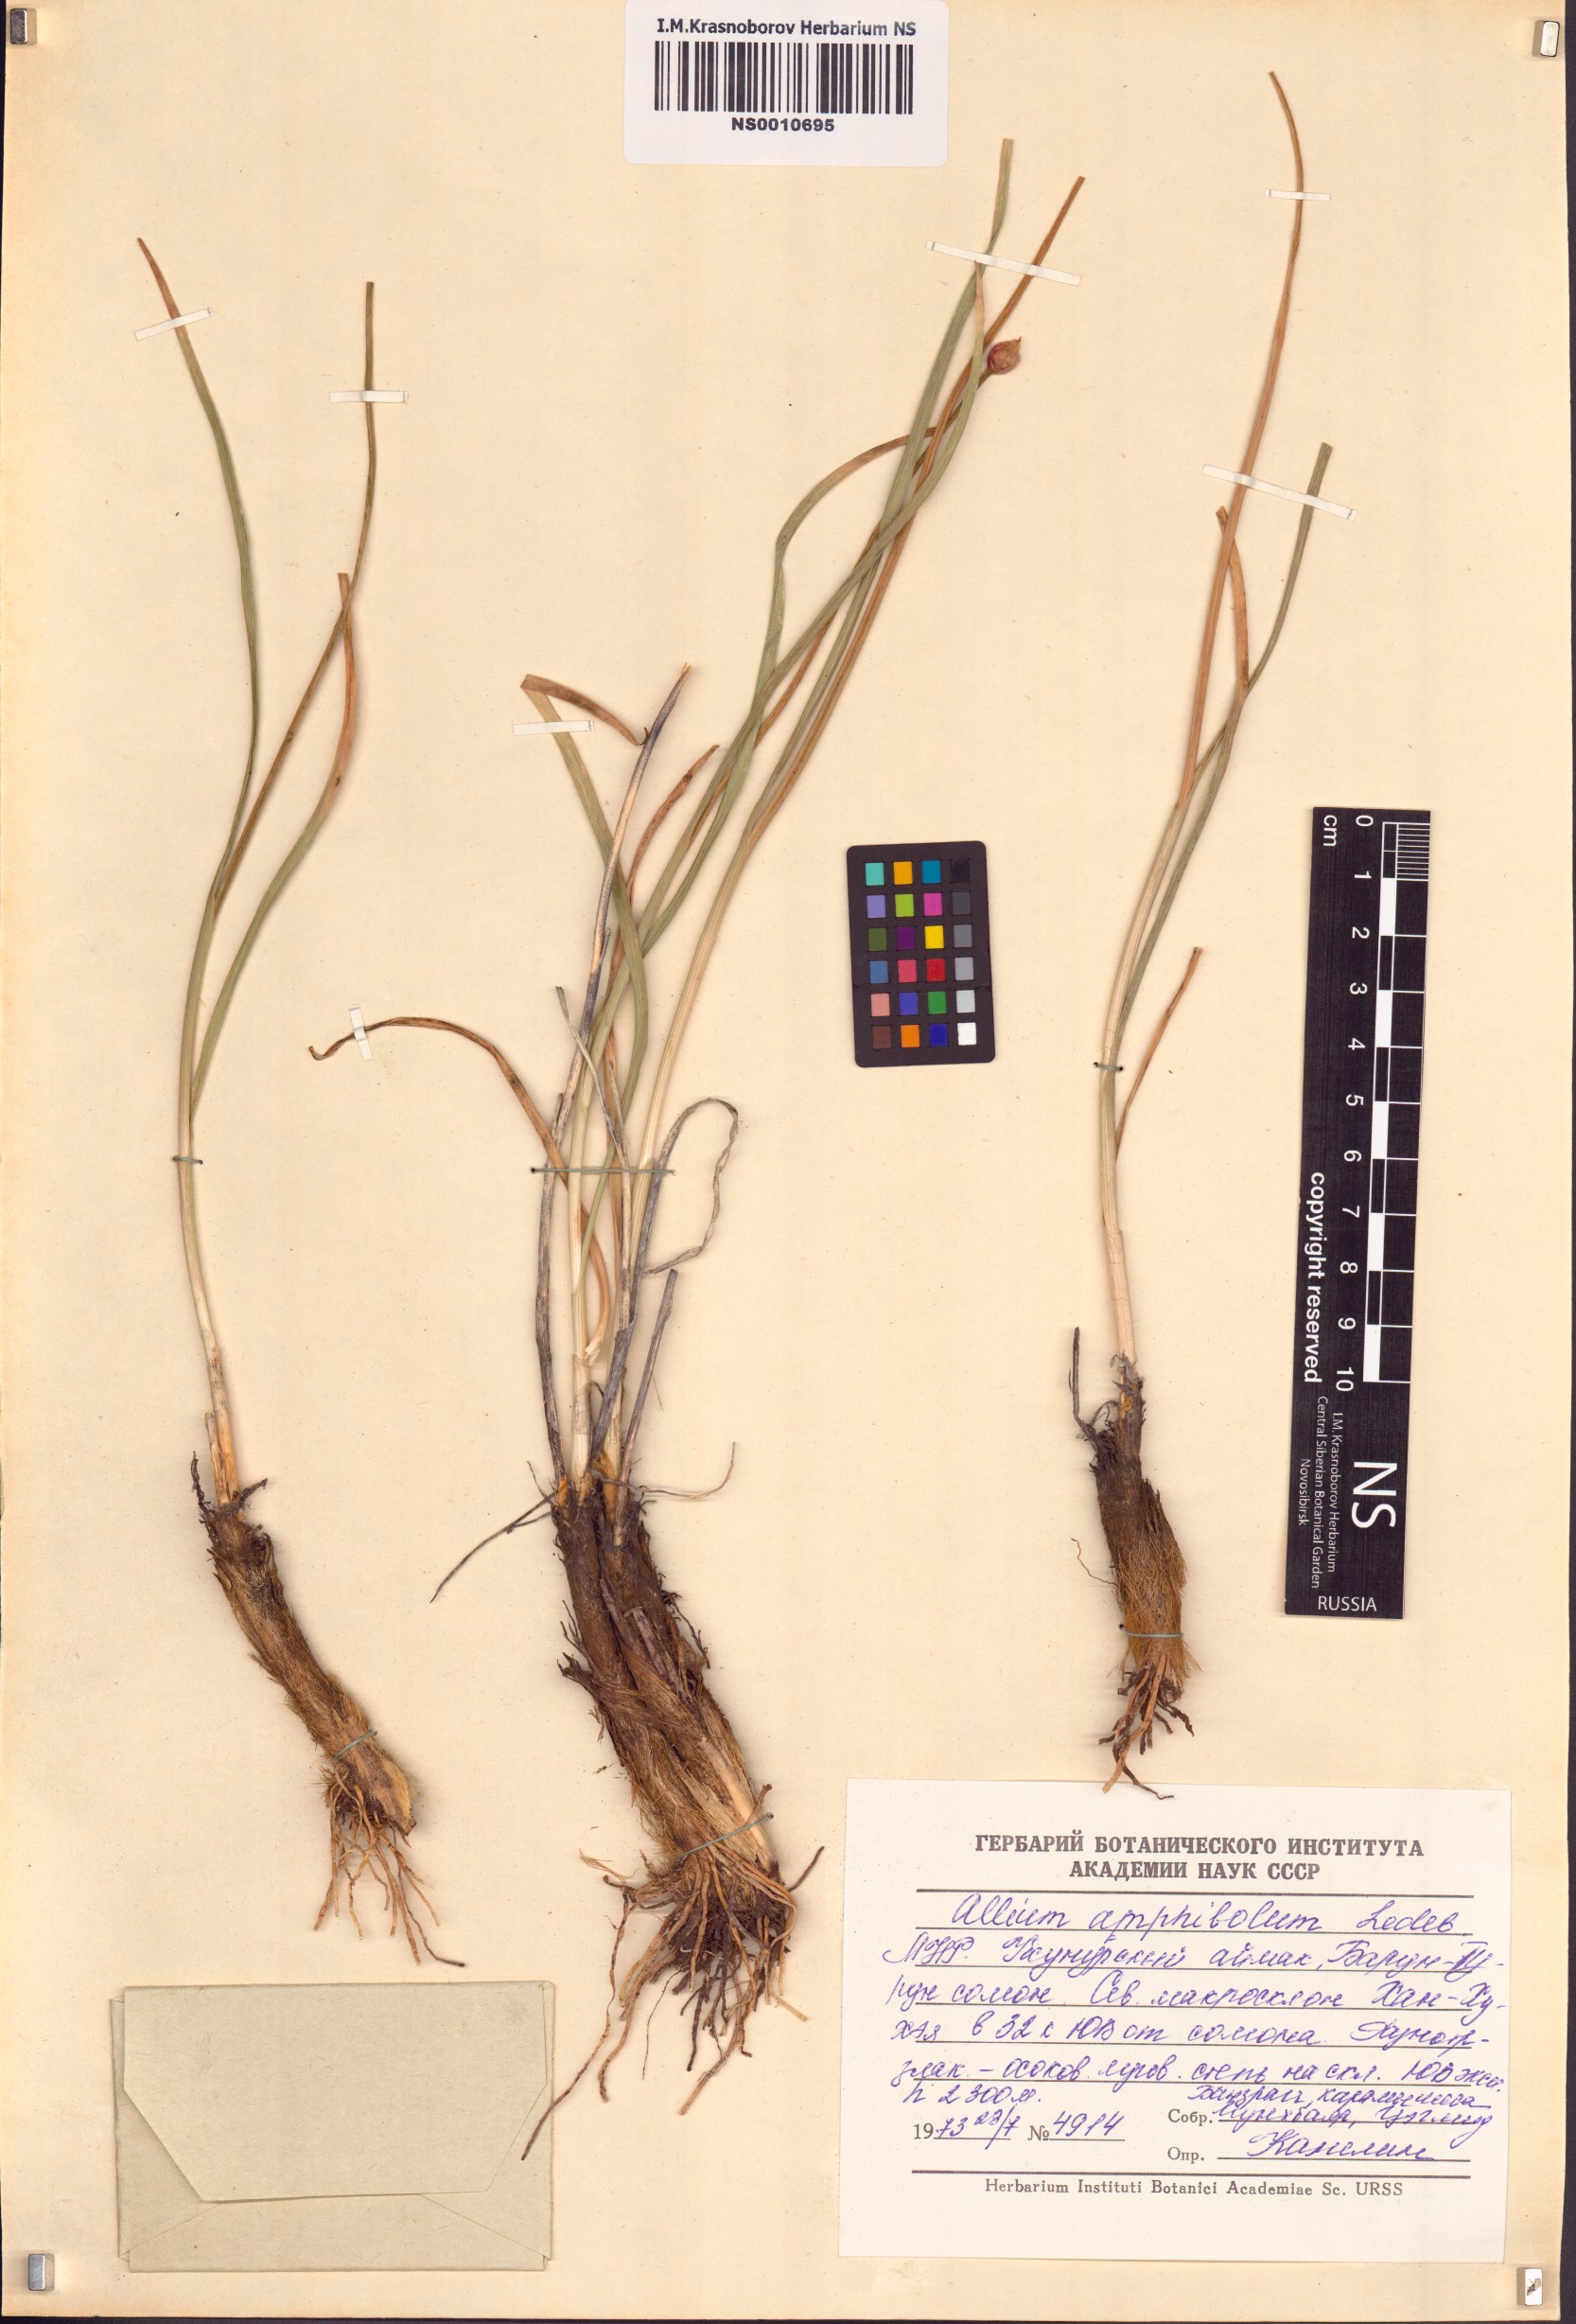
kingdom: Plantae
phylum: Tracheophyta
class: Liliopsida
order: Asparagales
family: Amaryllidaceae
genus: Allium
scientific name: Allium amphibolum
